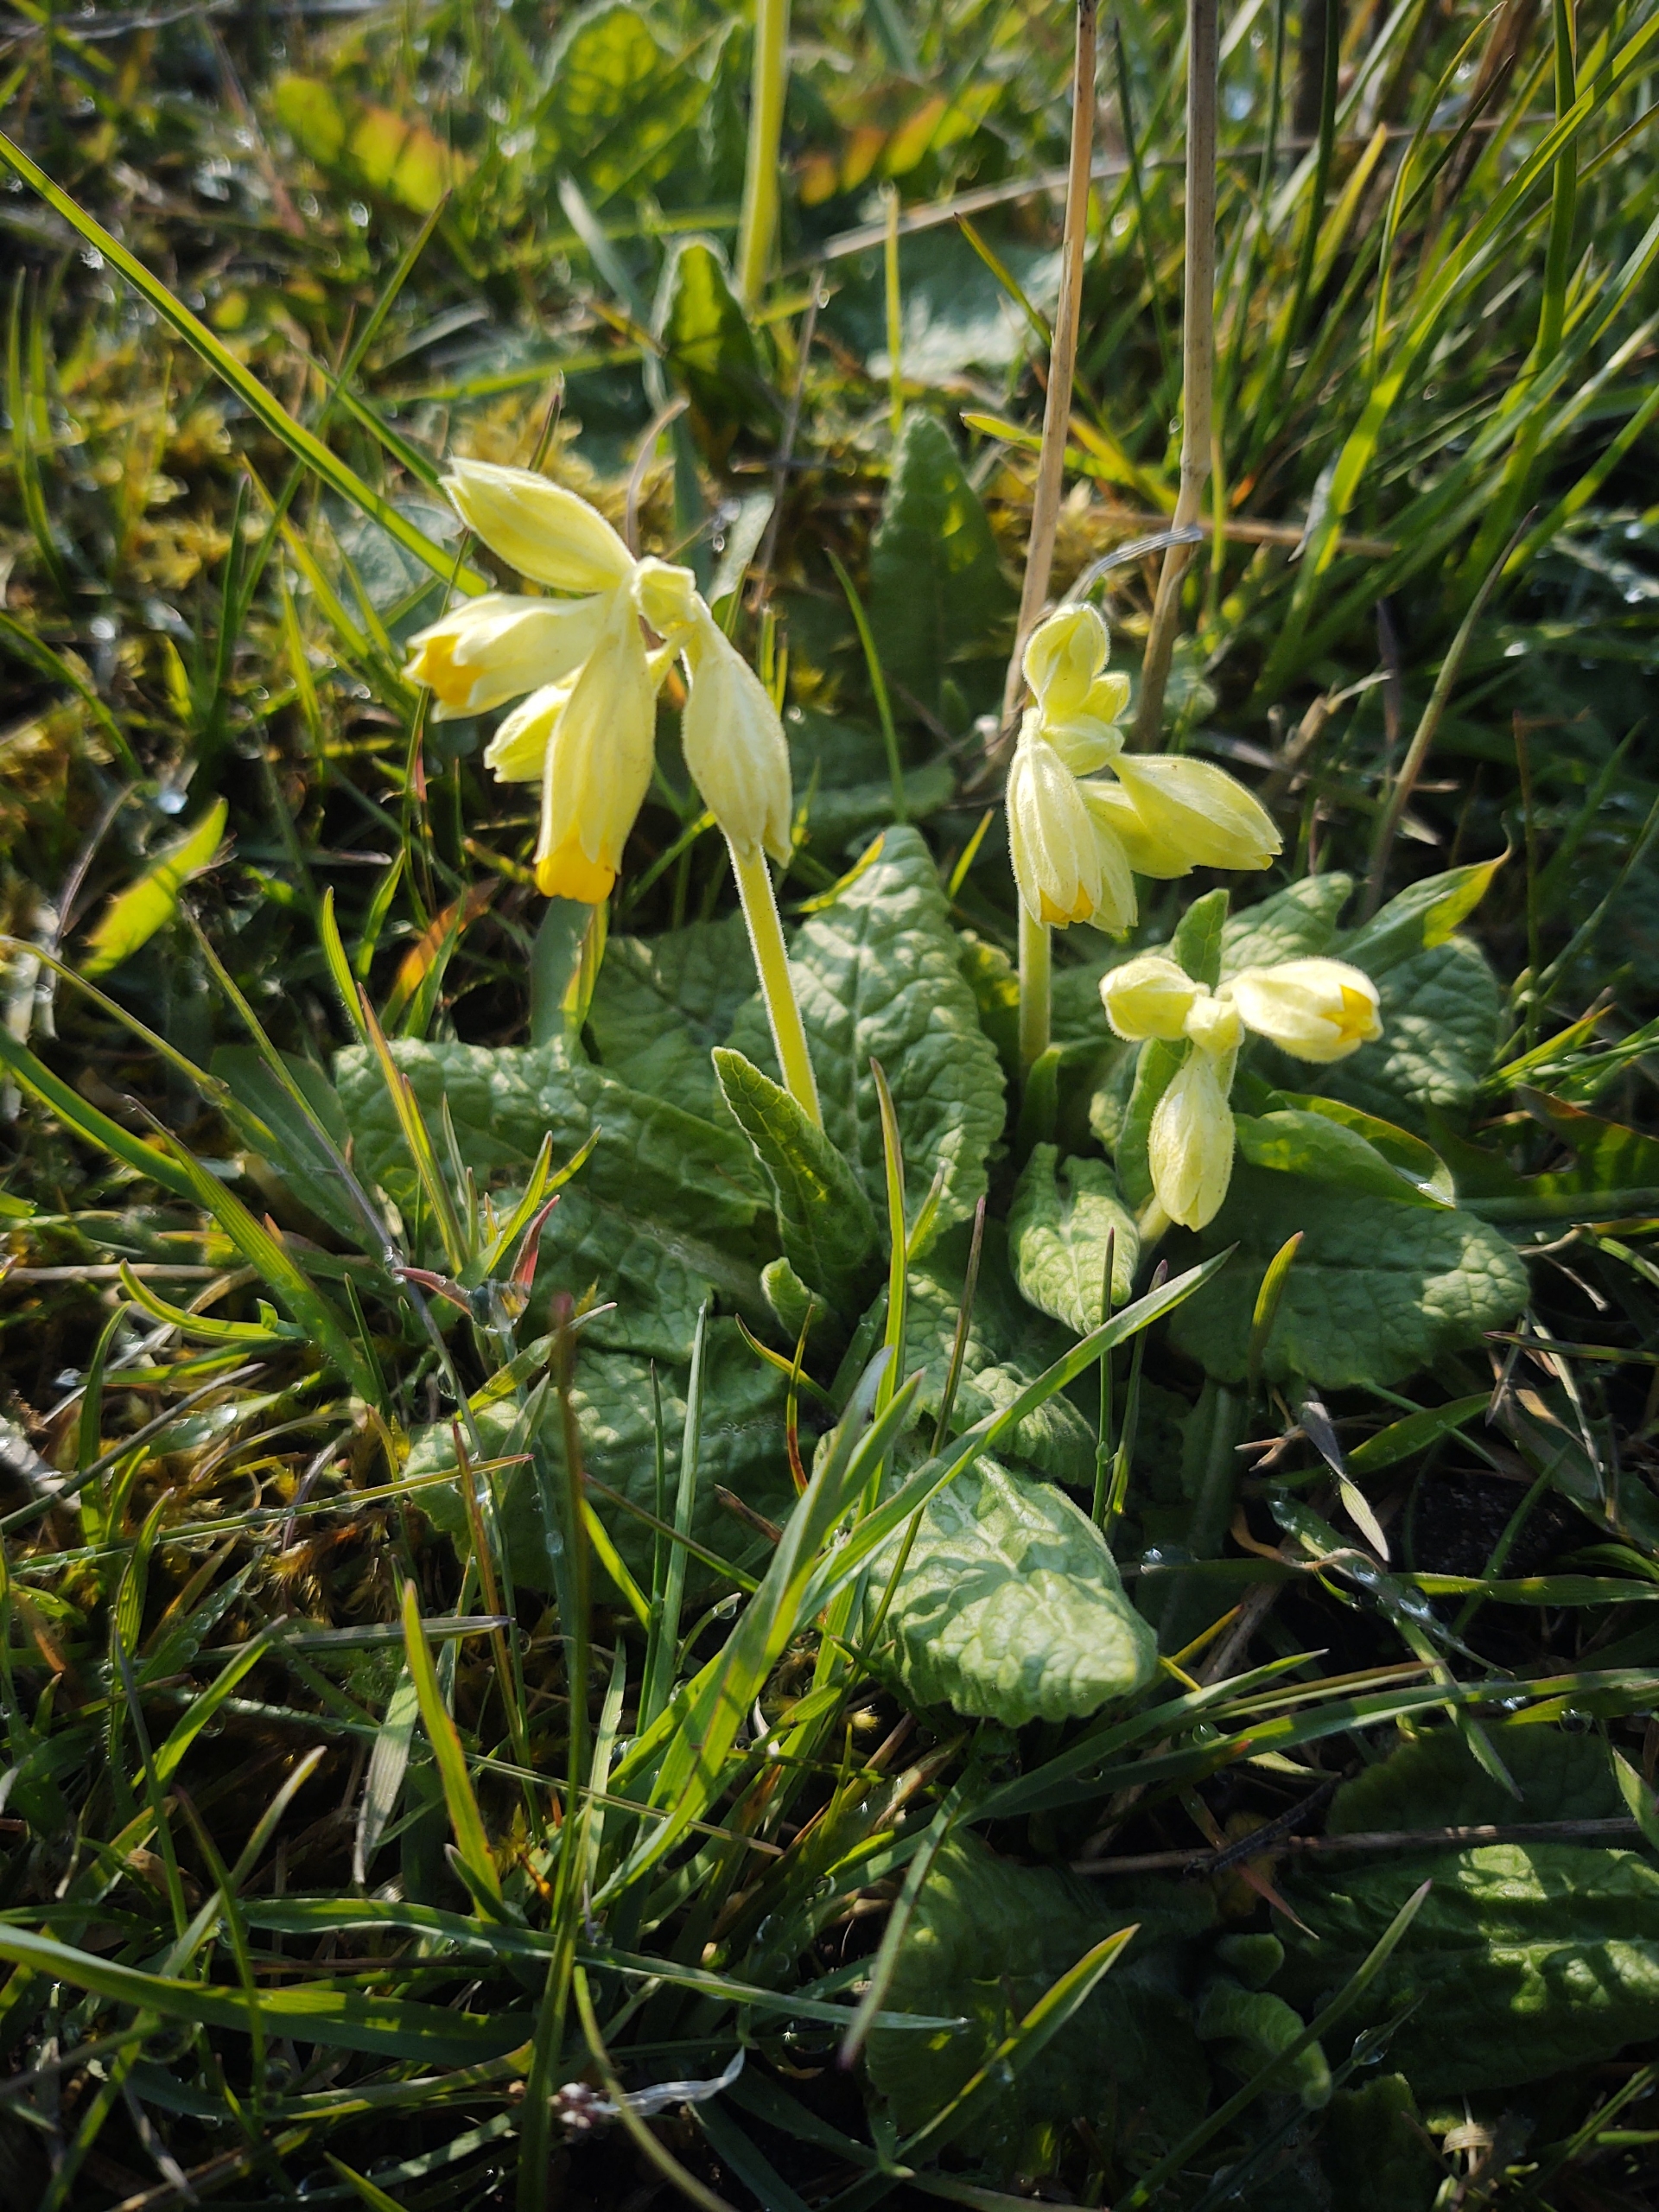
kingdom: Plantae
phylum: Tracheophyta
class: Magnoliopsida
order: Ericales
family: Primulaceae
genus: Primula
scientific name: Primula veris
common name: Hulkravet kodriver
